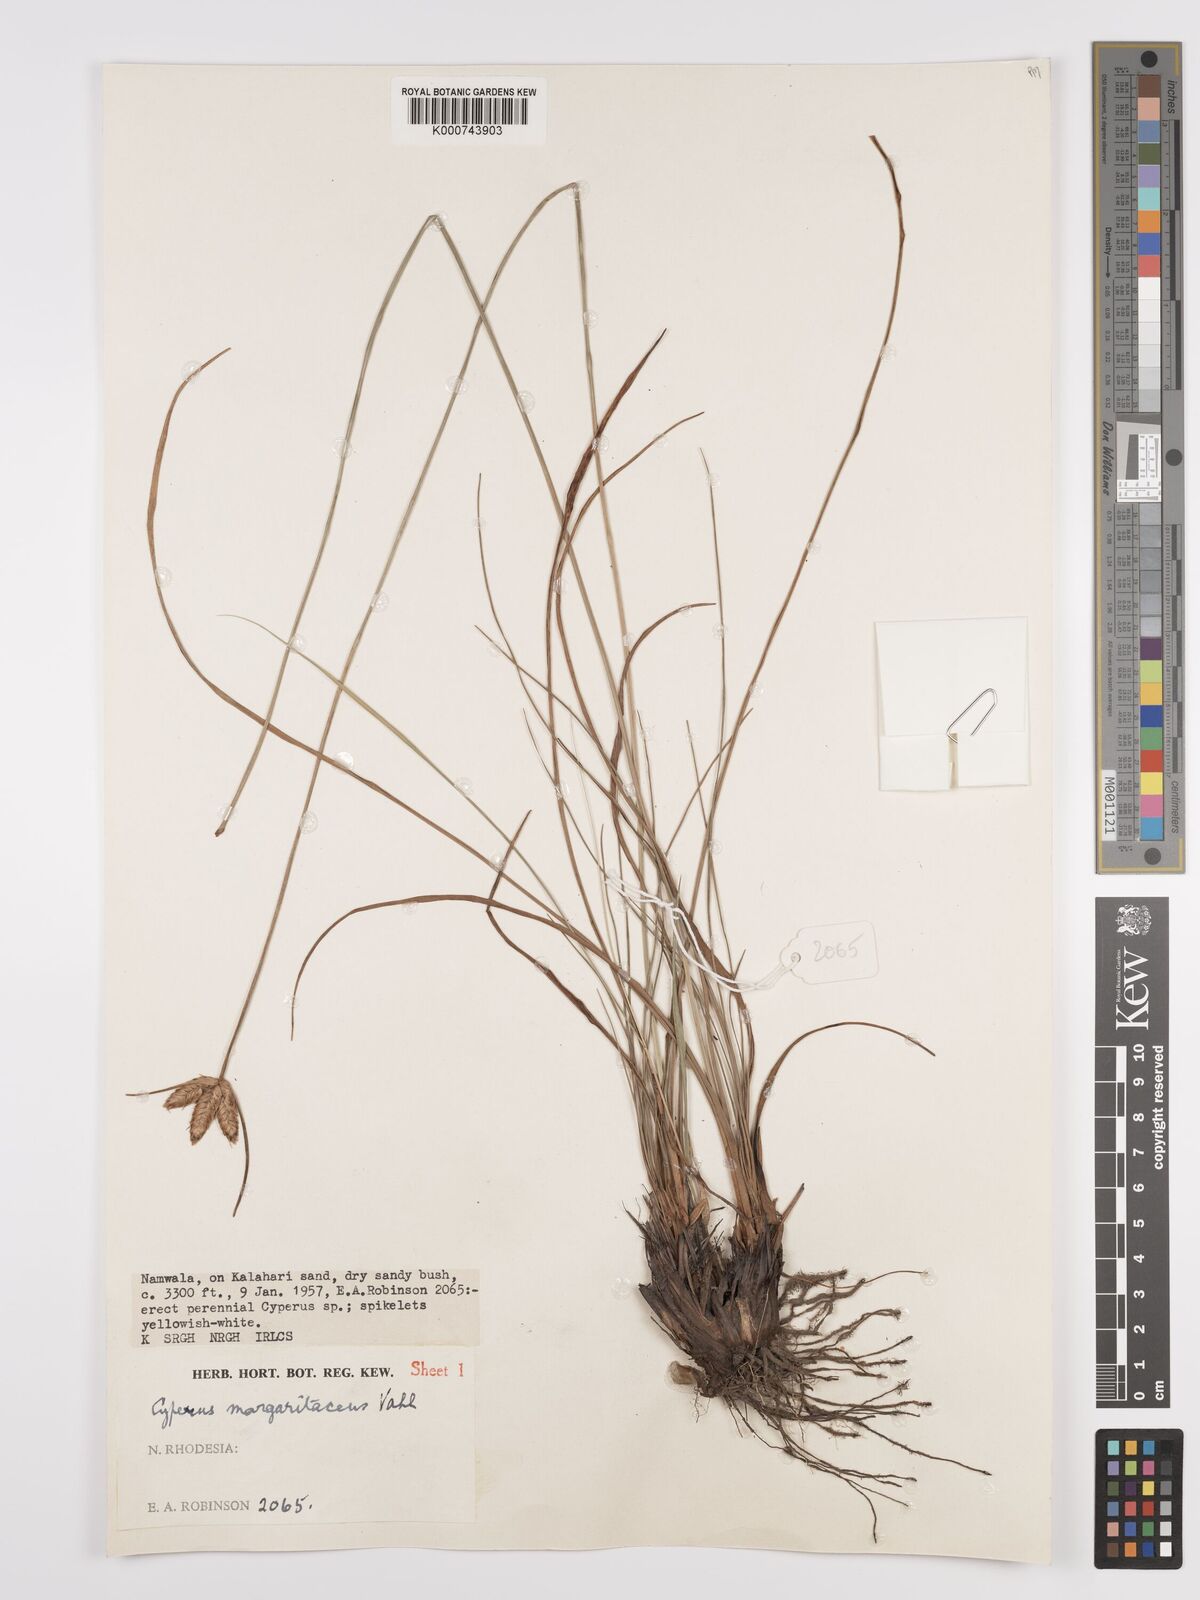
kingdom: Plantae
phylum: Tracheophyta
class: Liliopsida
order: Poales
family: Cyperaceae
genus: Cyperus
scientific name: Cyperus margaritaceus
